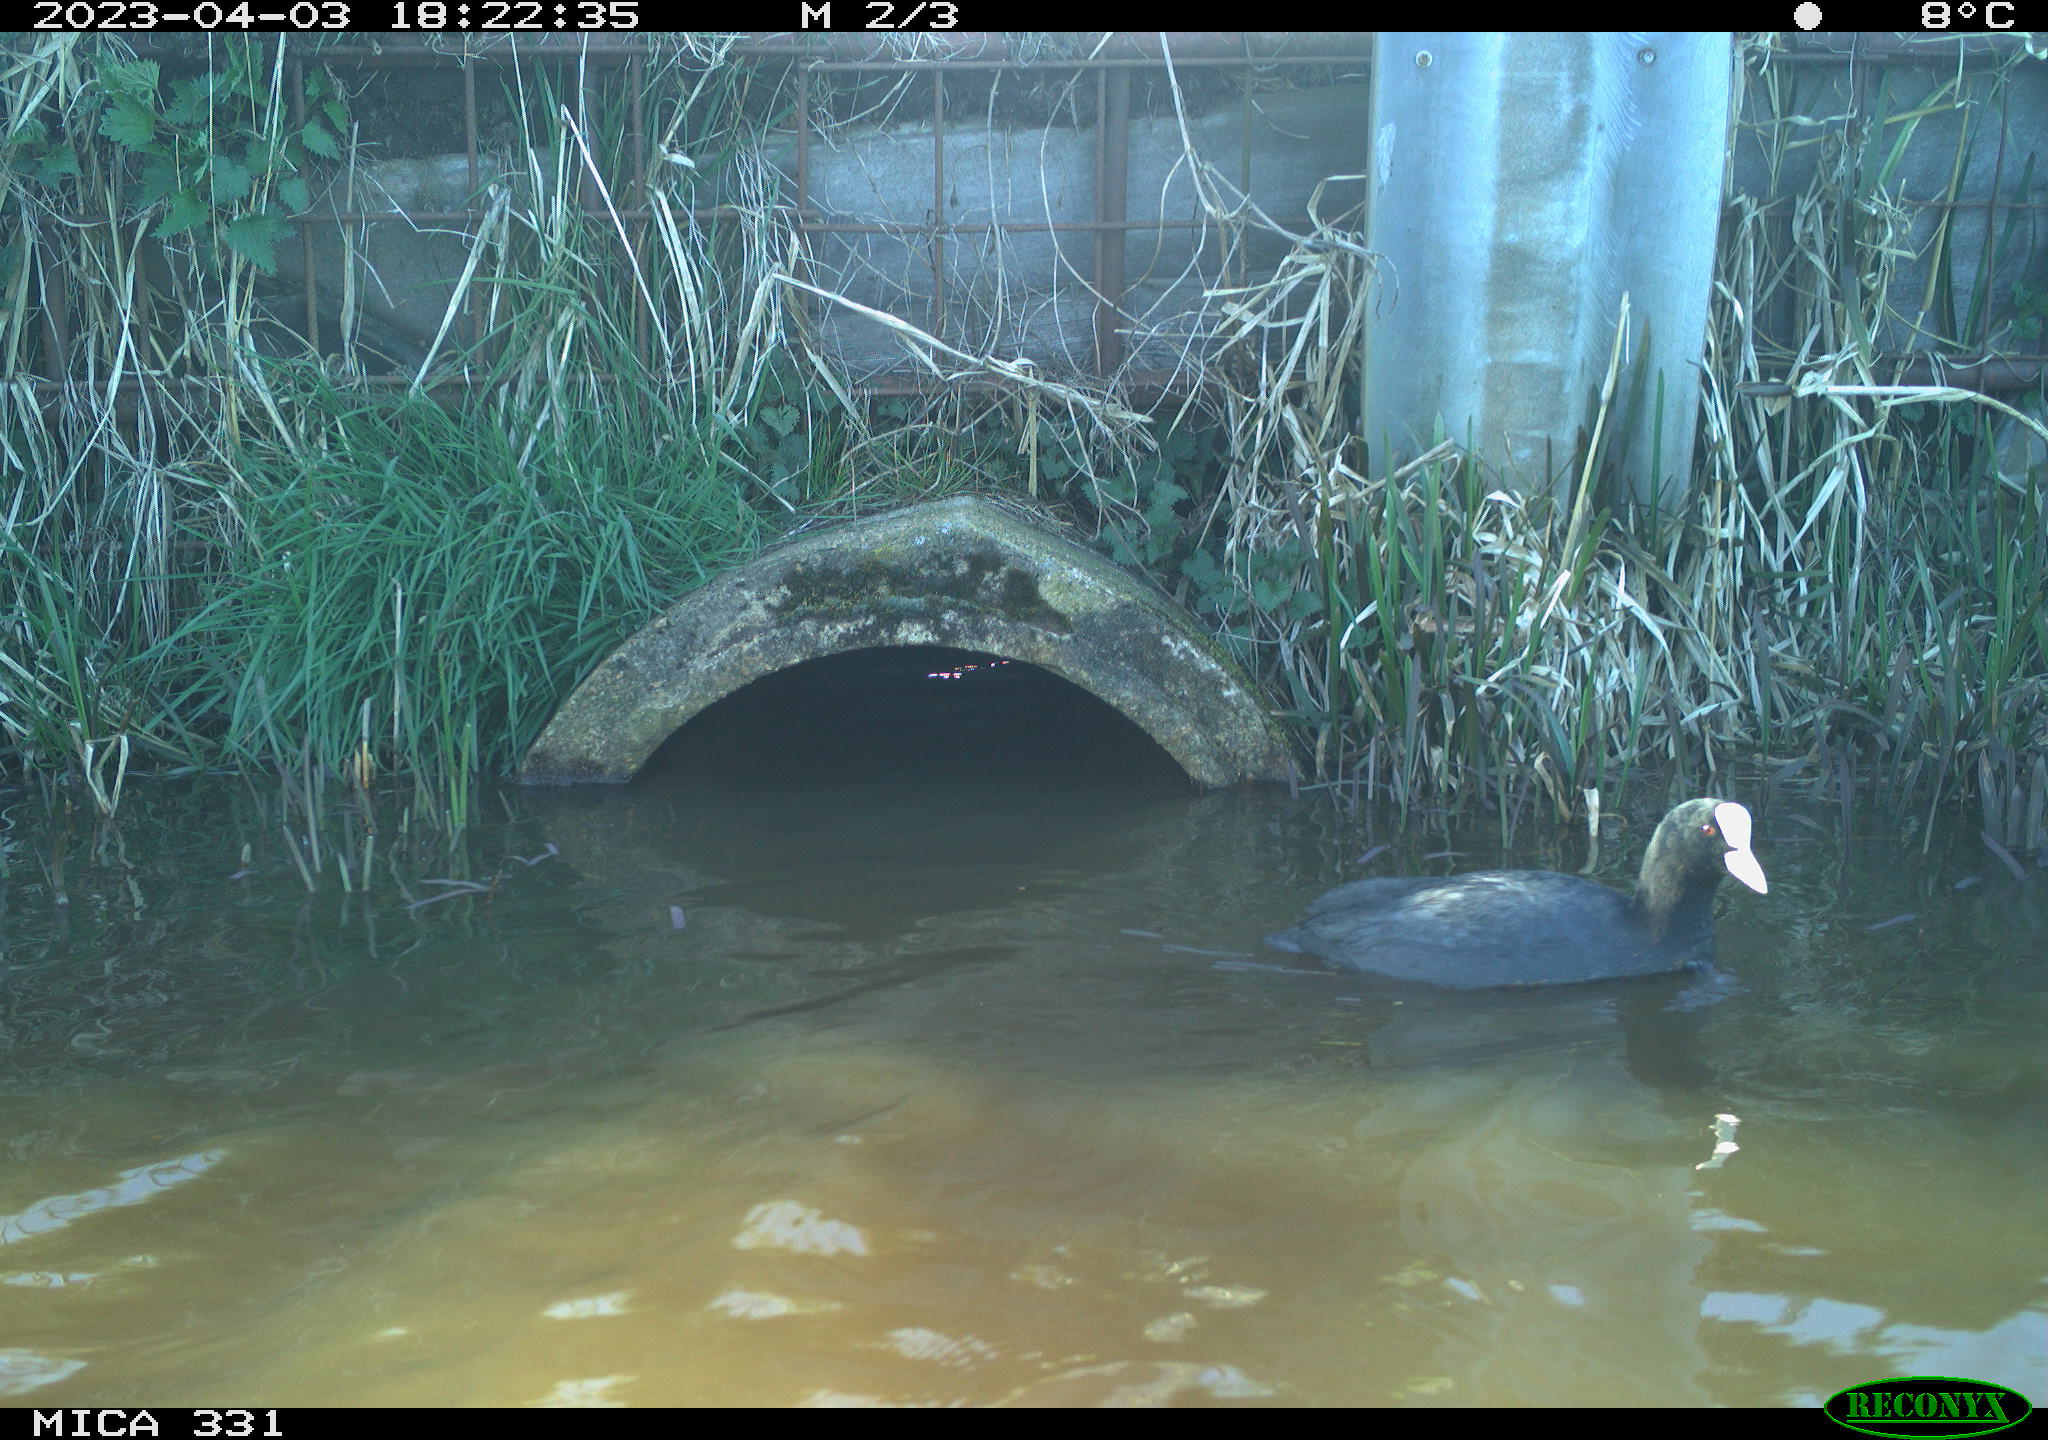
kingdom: Animalia
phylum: Chordata
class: Aves
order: Gruiformes
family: Rallidae
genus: Fulica
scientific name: Fulica atra
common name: Eurasian coot
